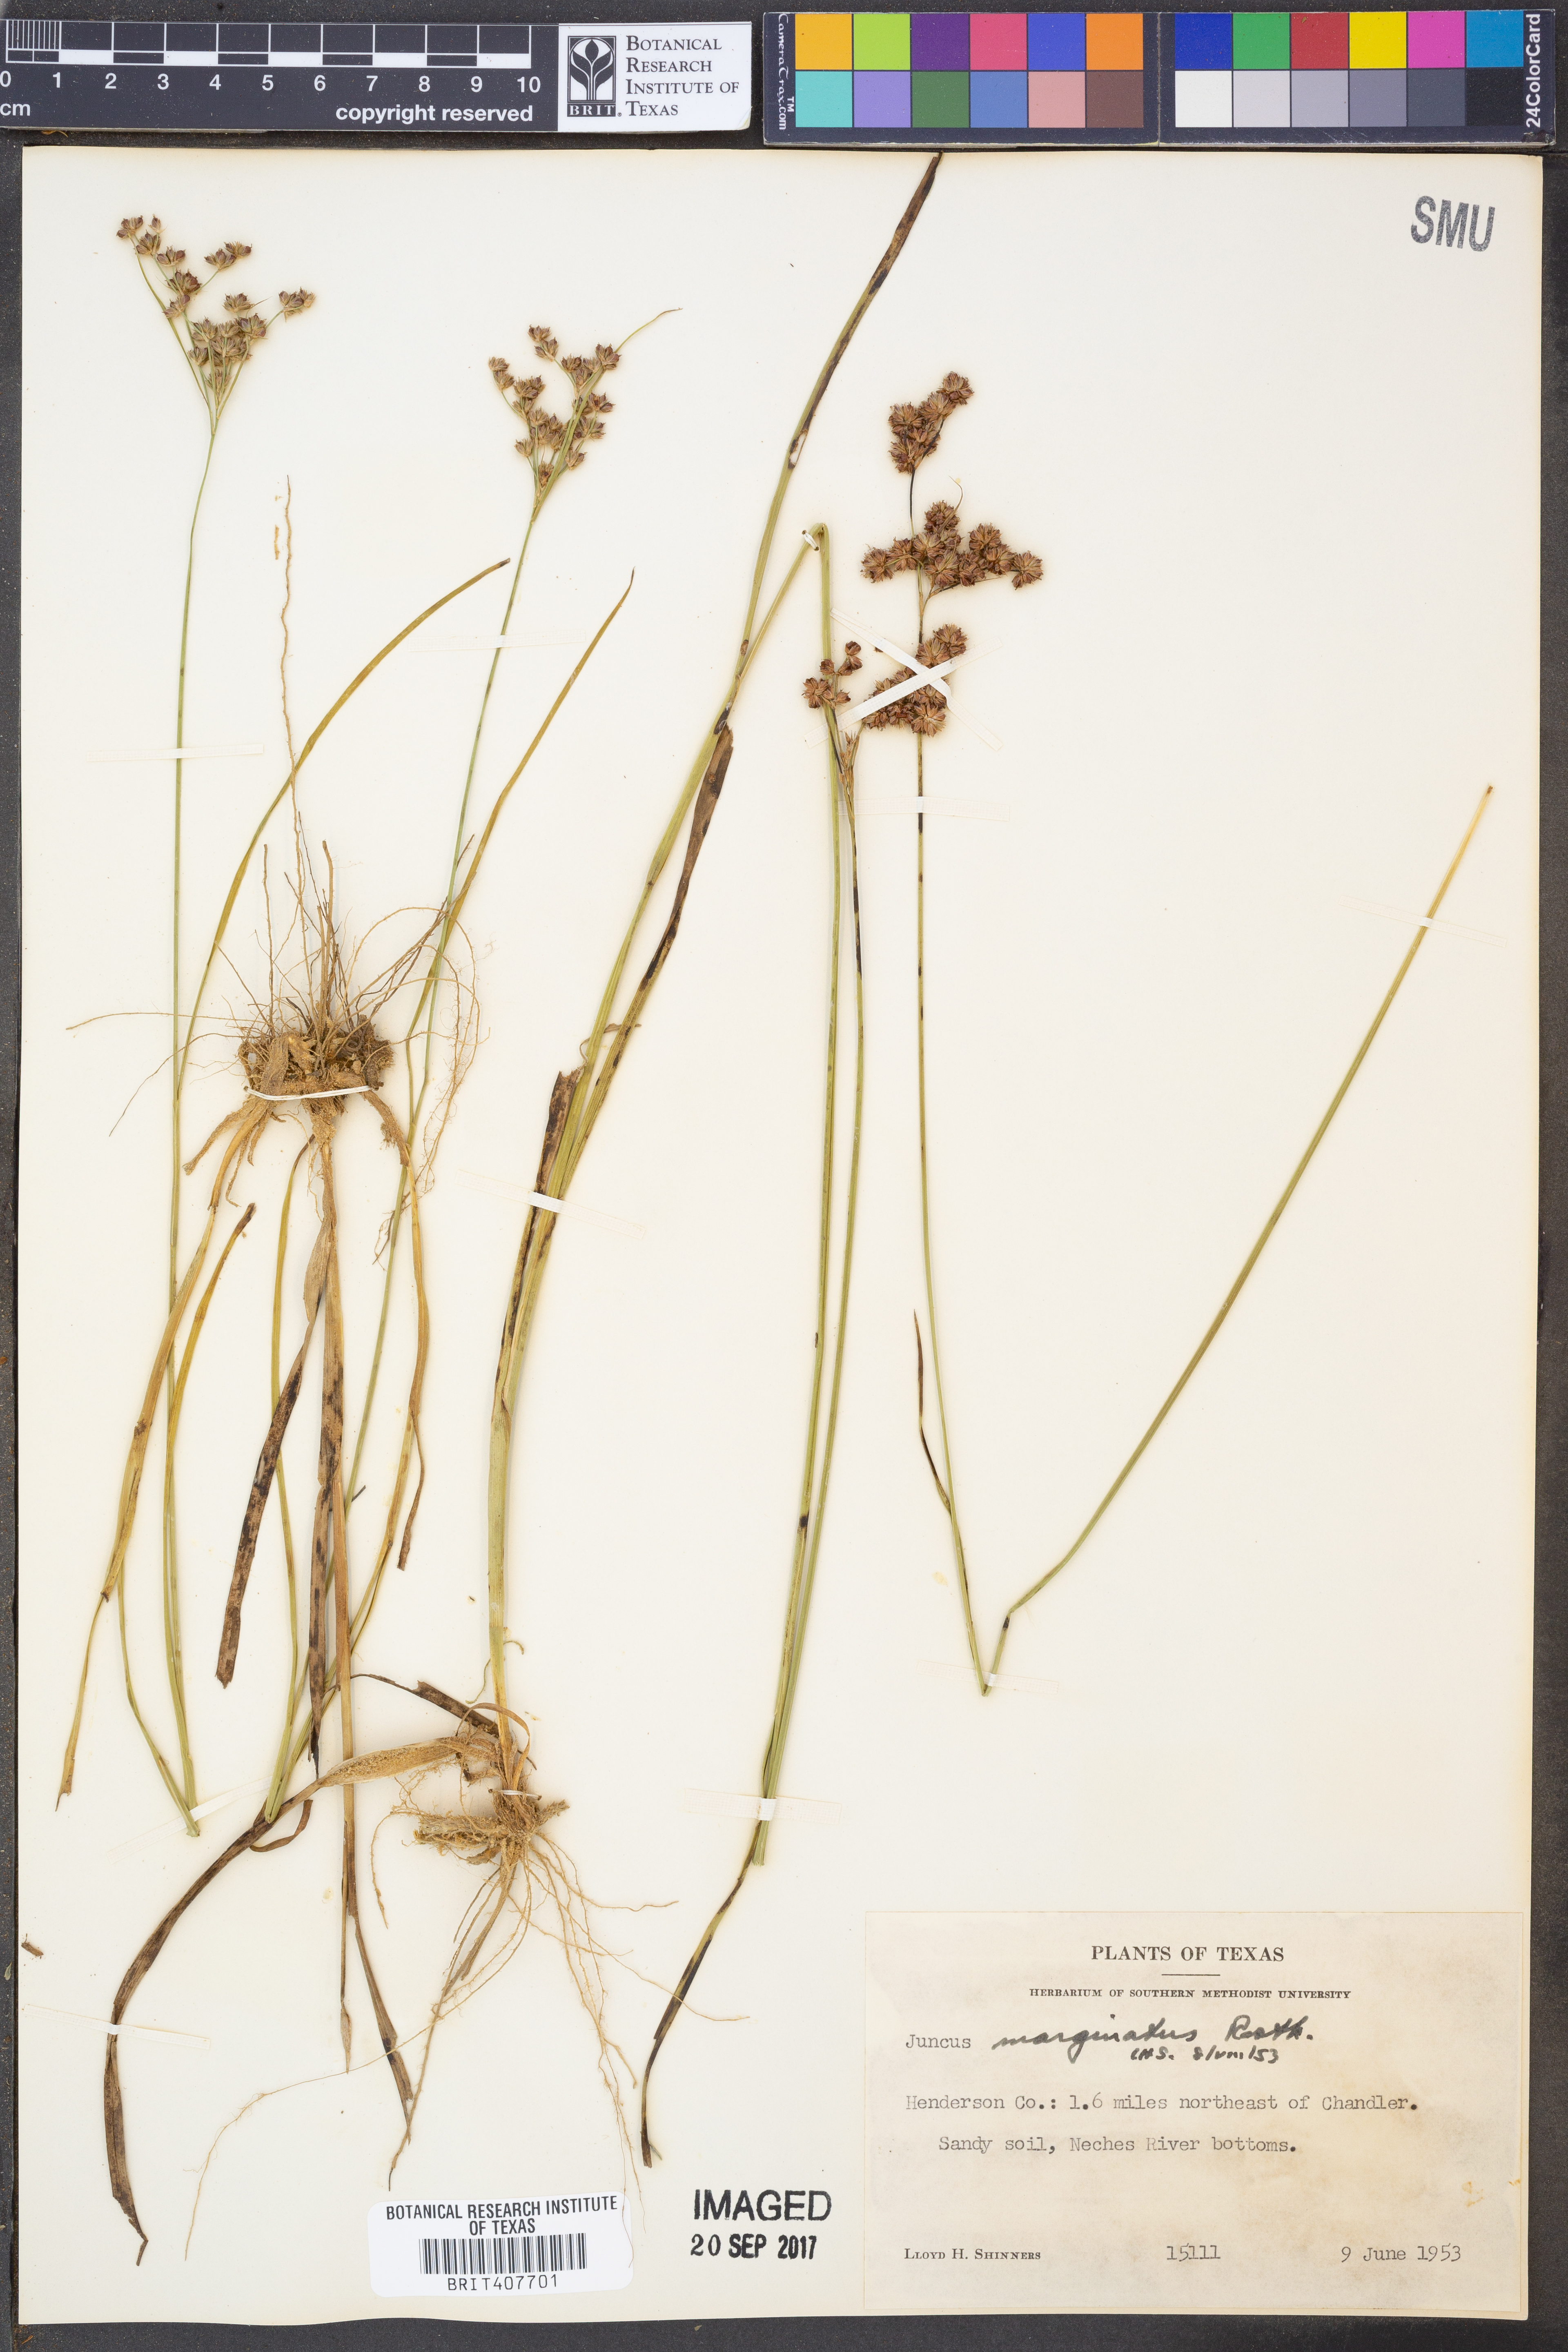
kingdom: Plantae
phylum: Tracheophyta
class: Liliopsida
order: Poales
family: Juncaceae
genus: Juncus
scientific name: Juncus marginatus
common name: Grass-leaf rush
